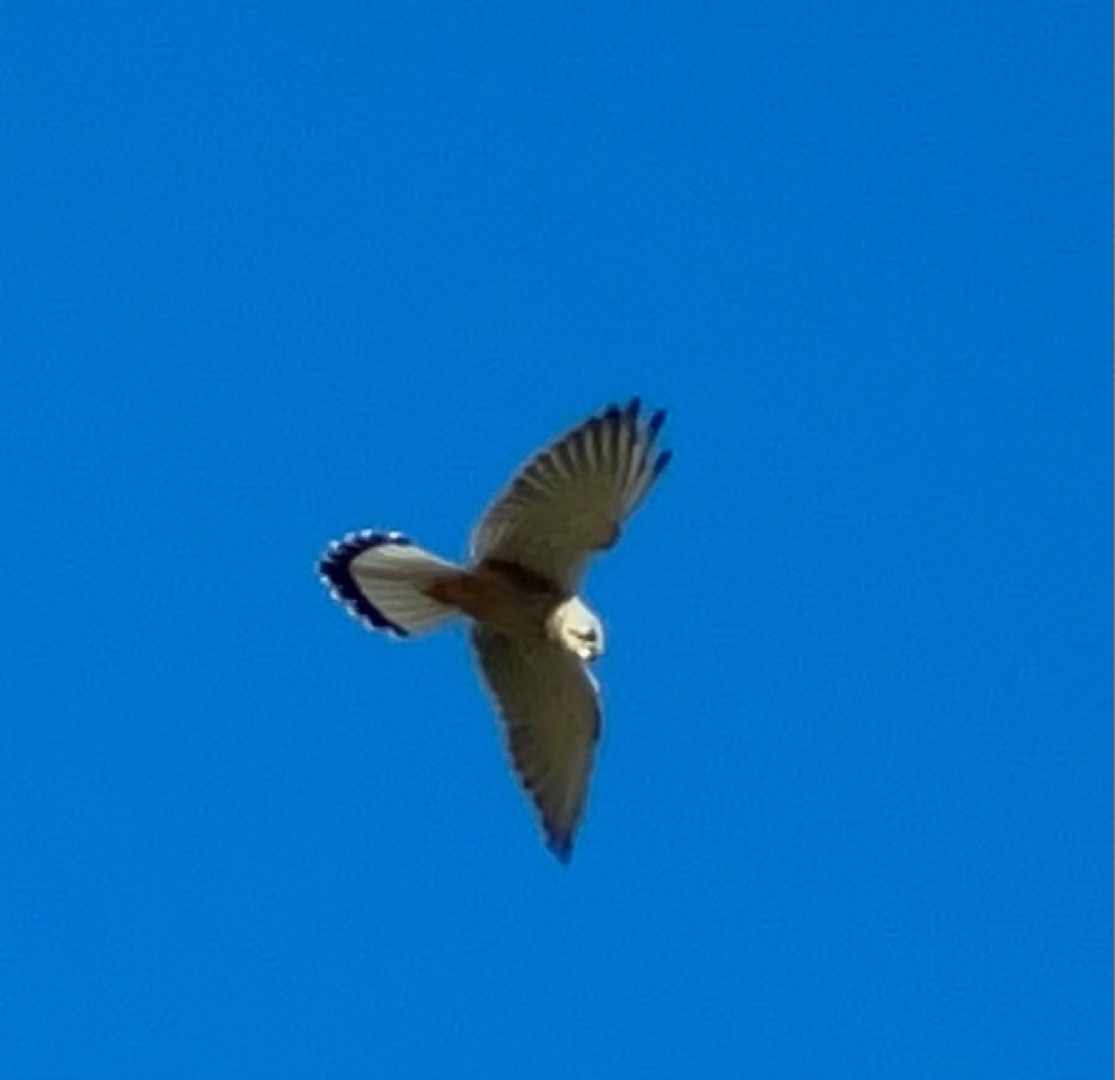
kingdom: Animalia
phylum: Chordata
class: Aves
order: Falconiformes
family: Falconidae
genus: Falco
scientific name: Falco tinnunculus
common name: Tårnfalk
